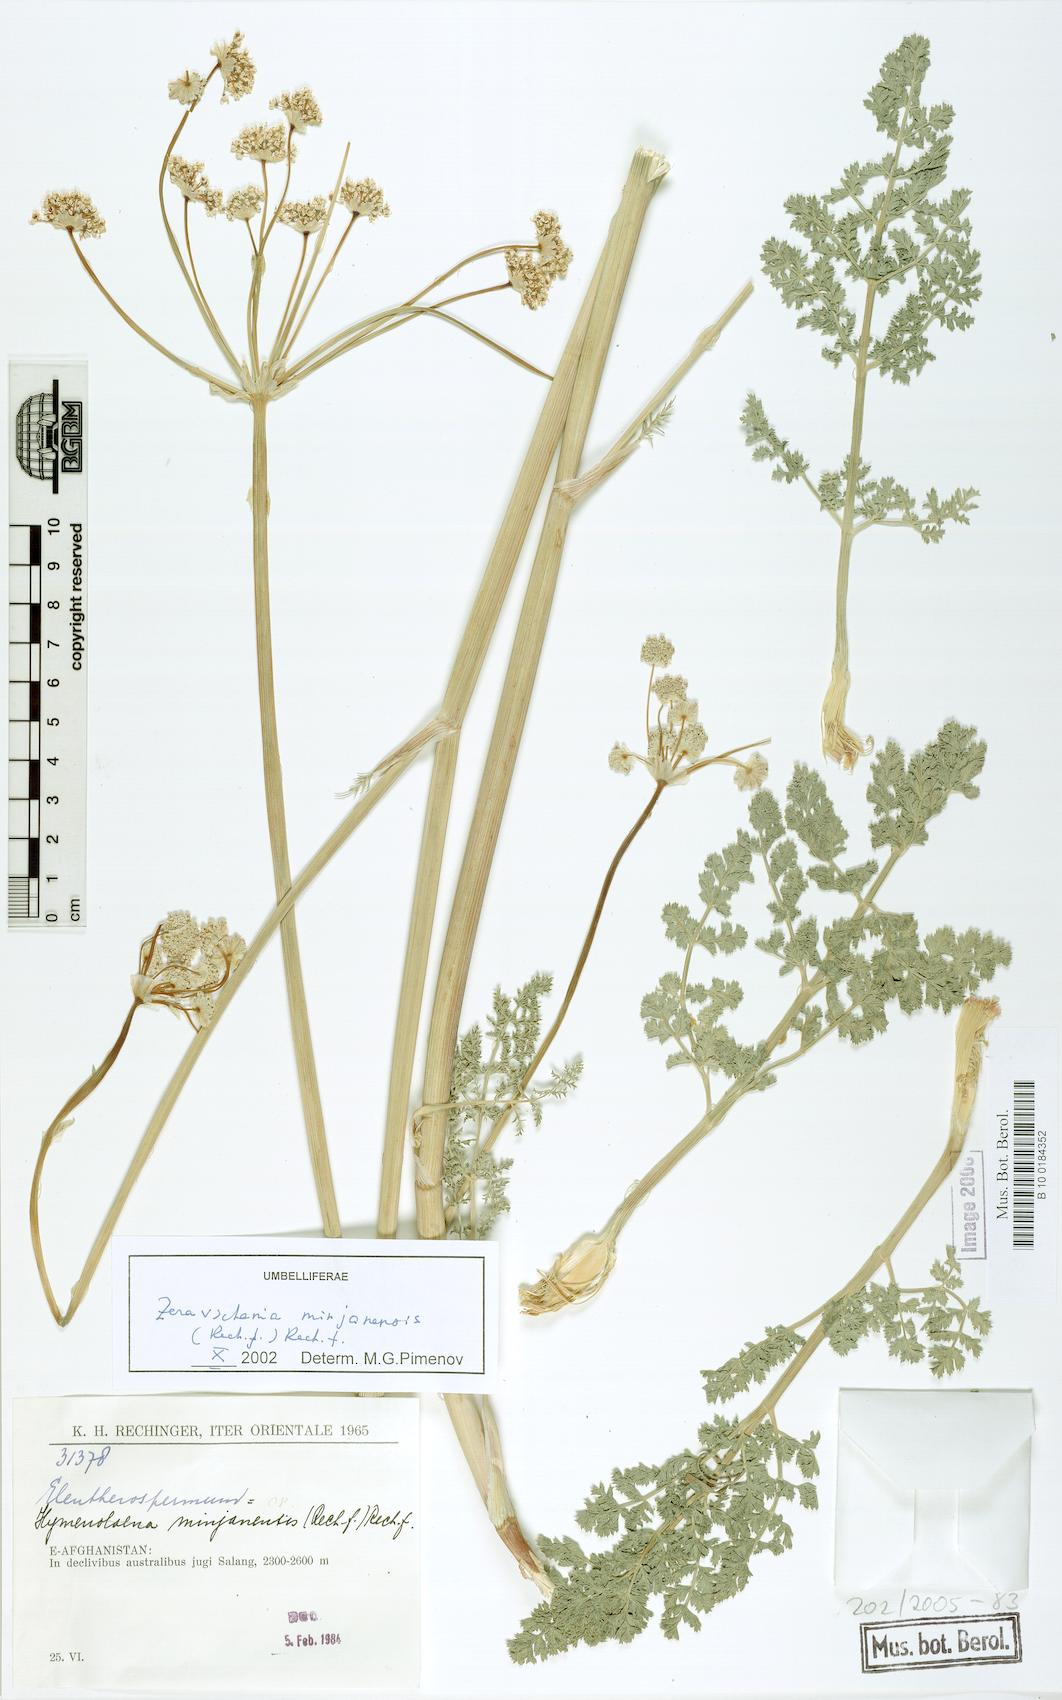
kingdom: Plantae
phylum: Tracheophyta
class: Magnoliopsida
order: Apiales
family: Apiaceae
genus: Zeravschania
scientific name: Zeravschania minjanensis
